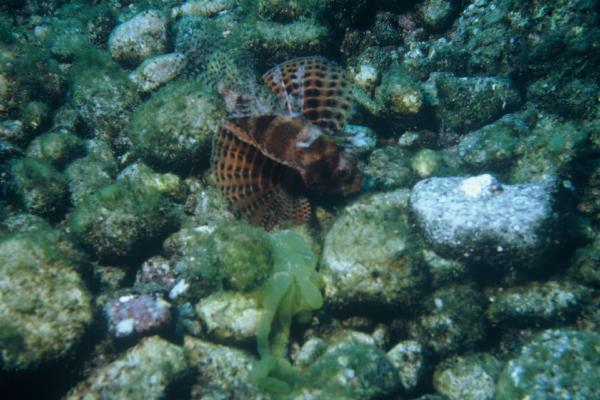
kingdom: Animalia
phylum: Chordata
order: Scorpaeniformes
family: Scorpaenidae
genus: Dendrochirus
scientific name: Dendrochirus brachypterus
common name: Shortfin turkeyfish
